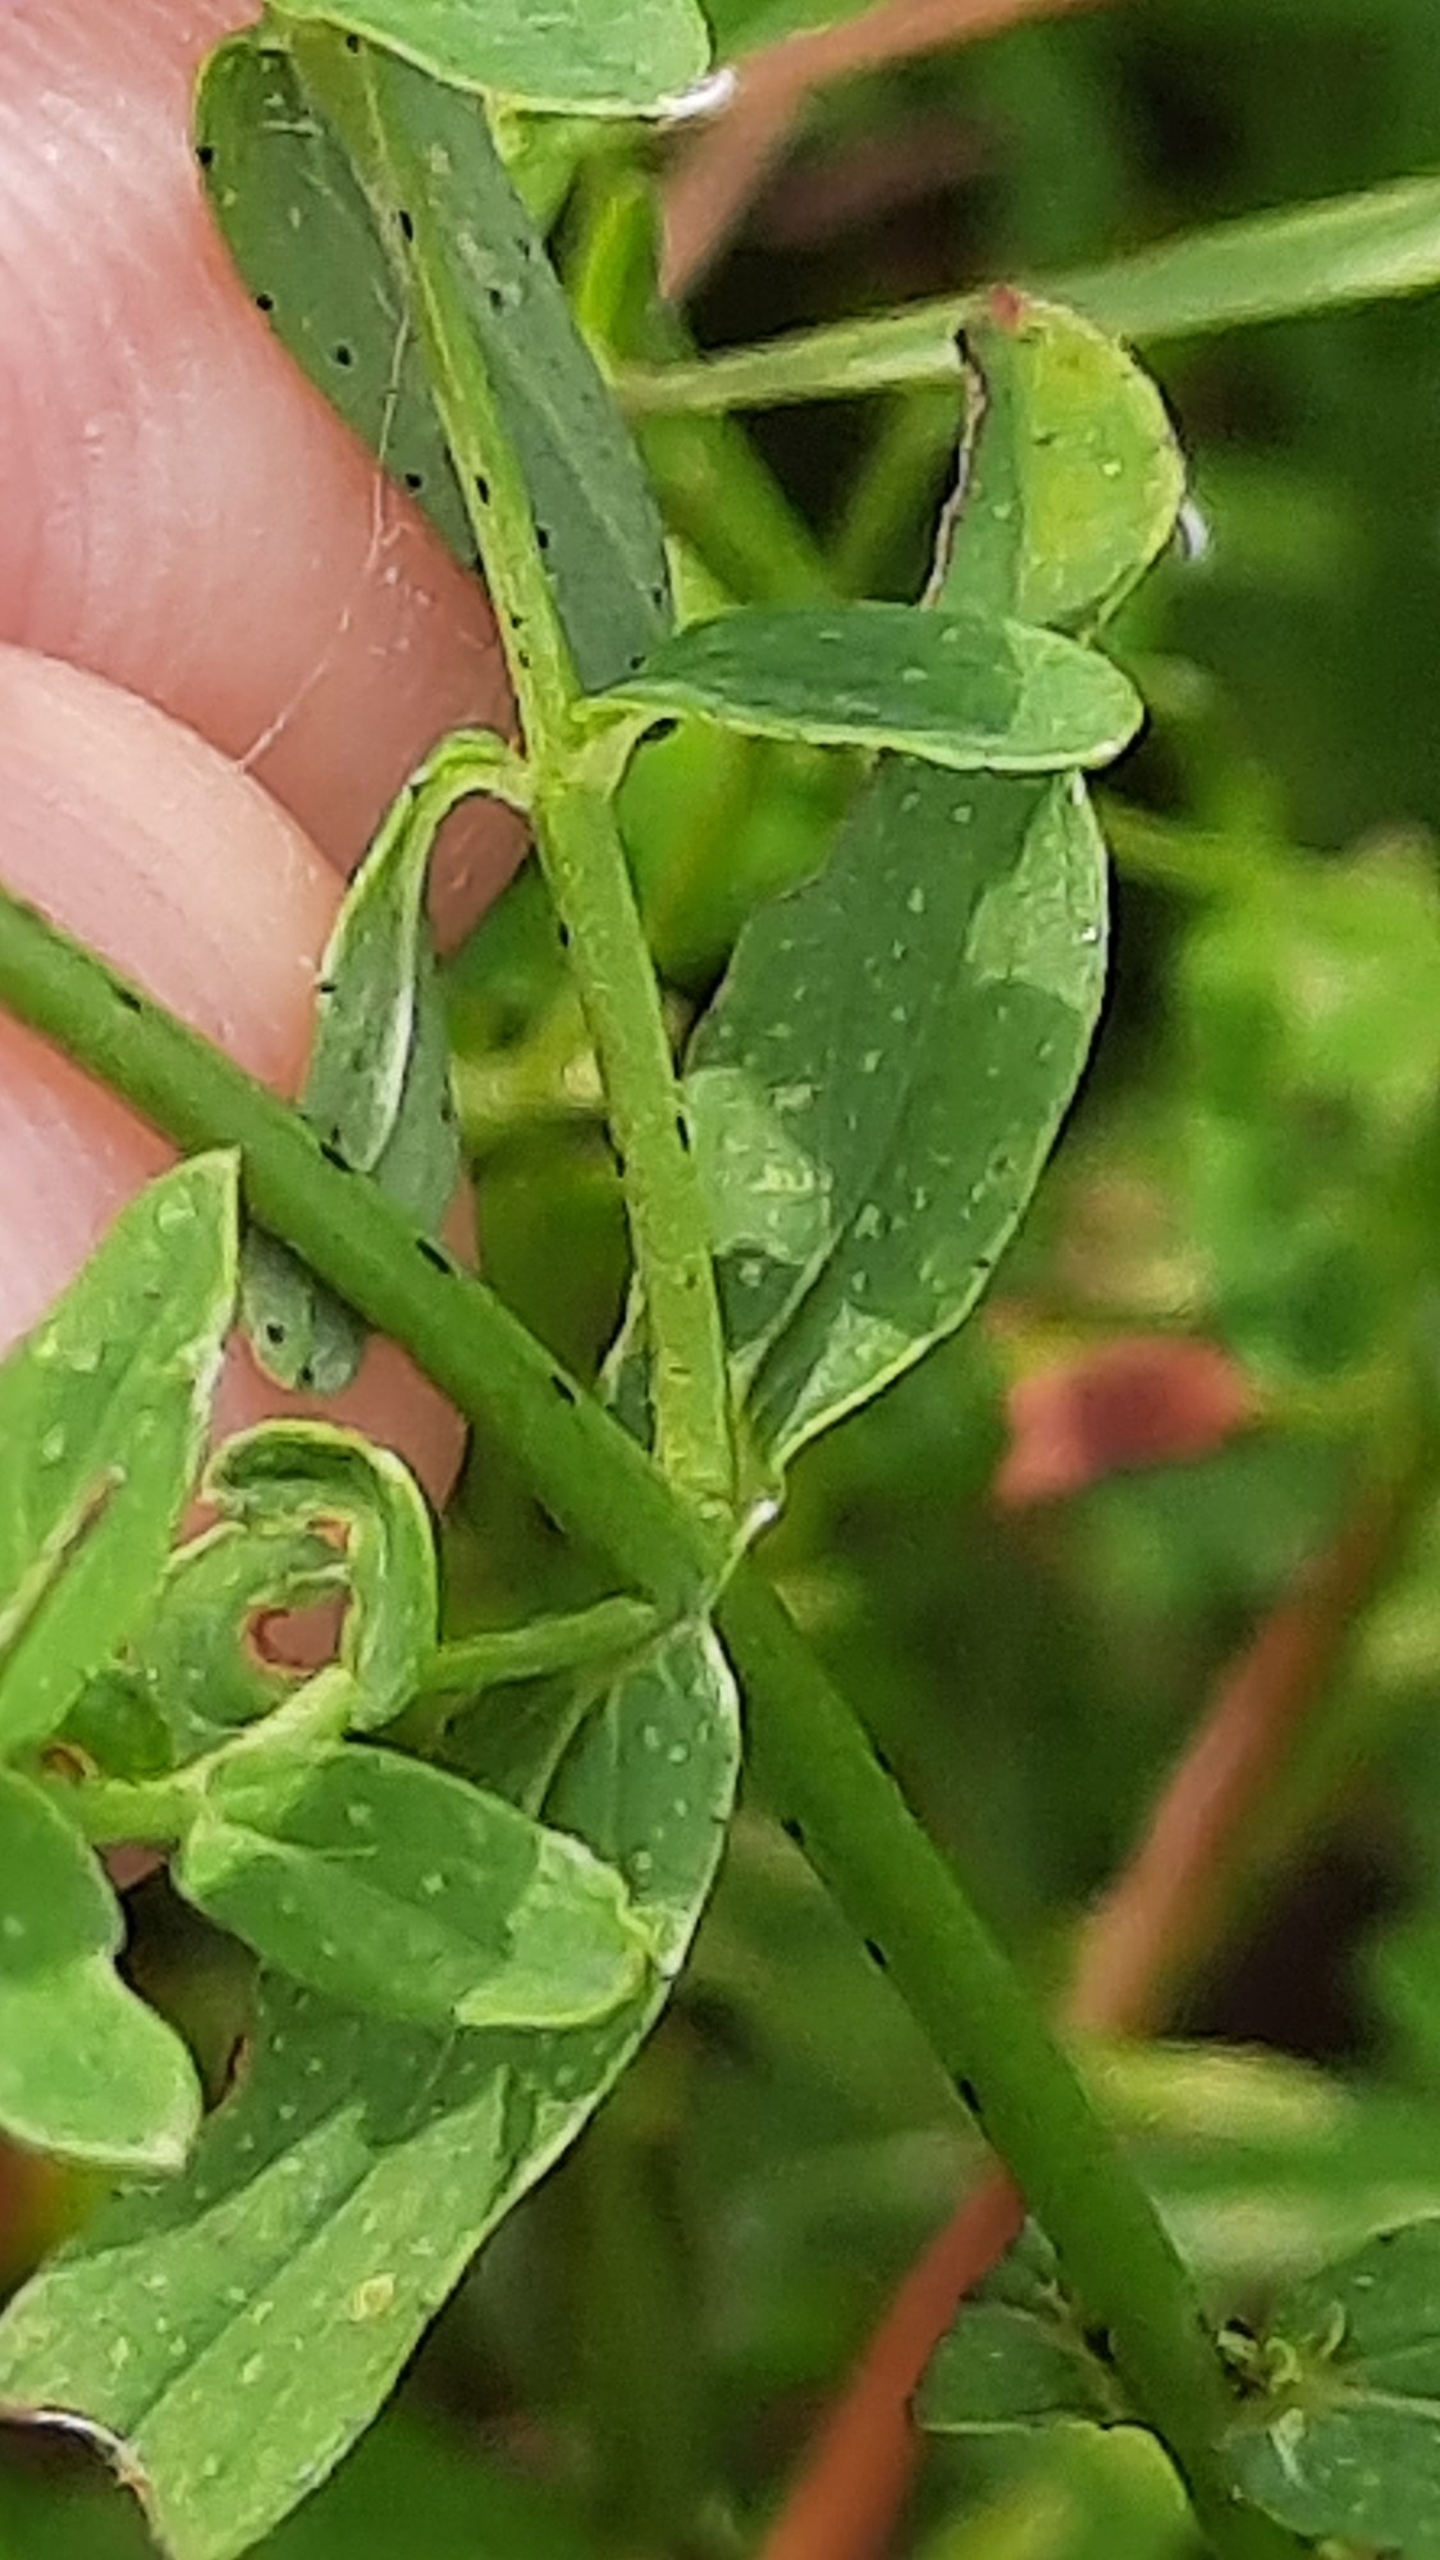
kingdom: Plantae
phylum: Tracheophyta
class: Magnoliopsida
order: Malpighiales
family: Hypericaceae
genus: Hypericum
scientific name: Hypericum perforatum
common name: Prikbladet perikon
